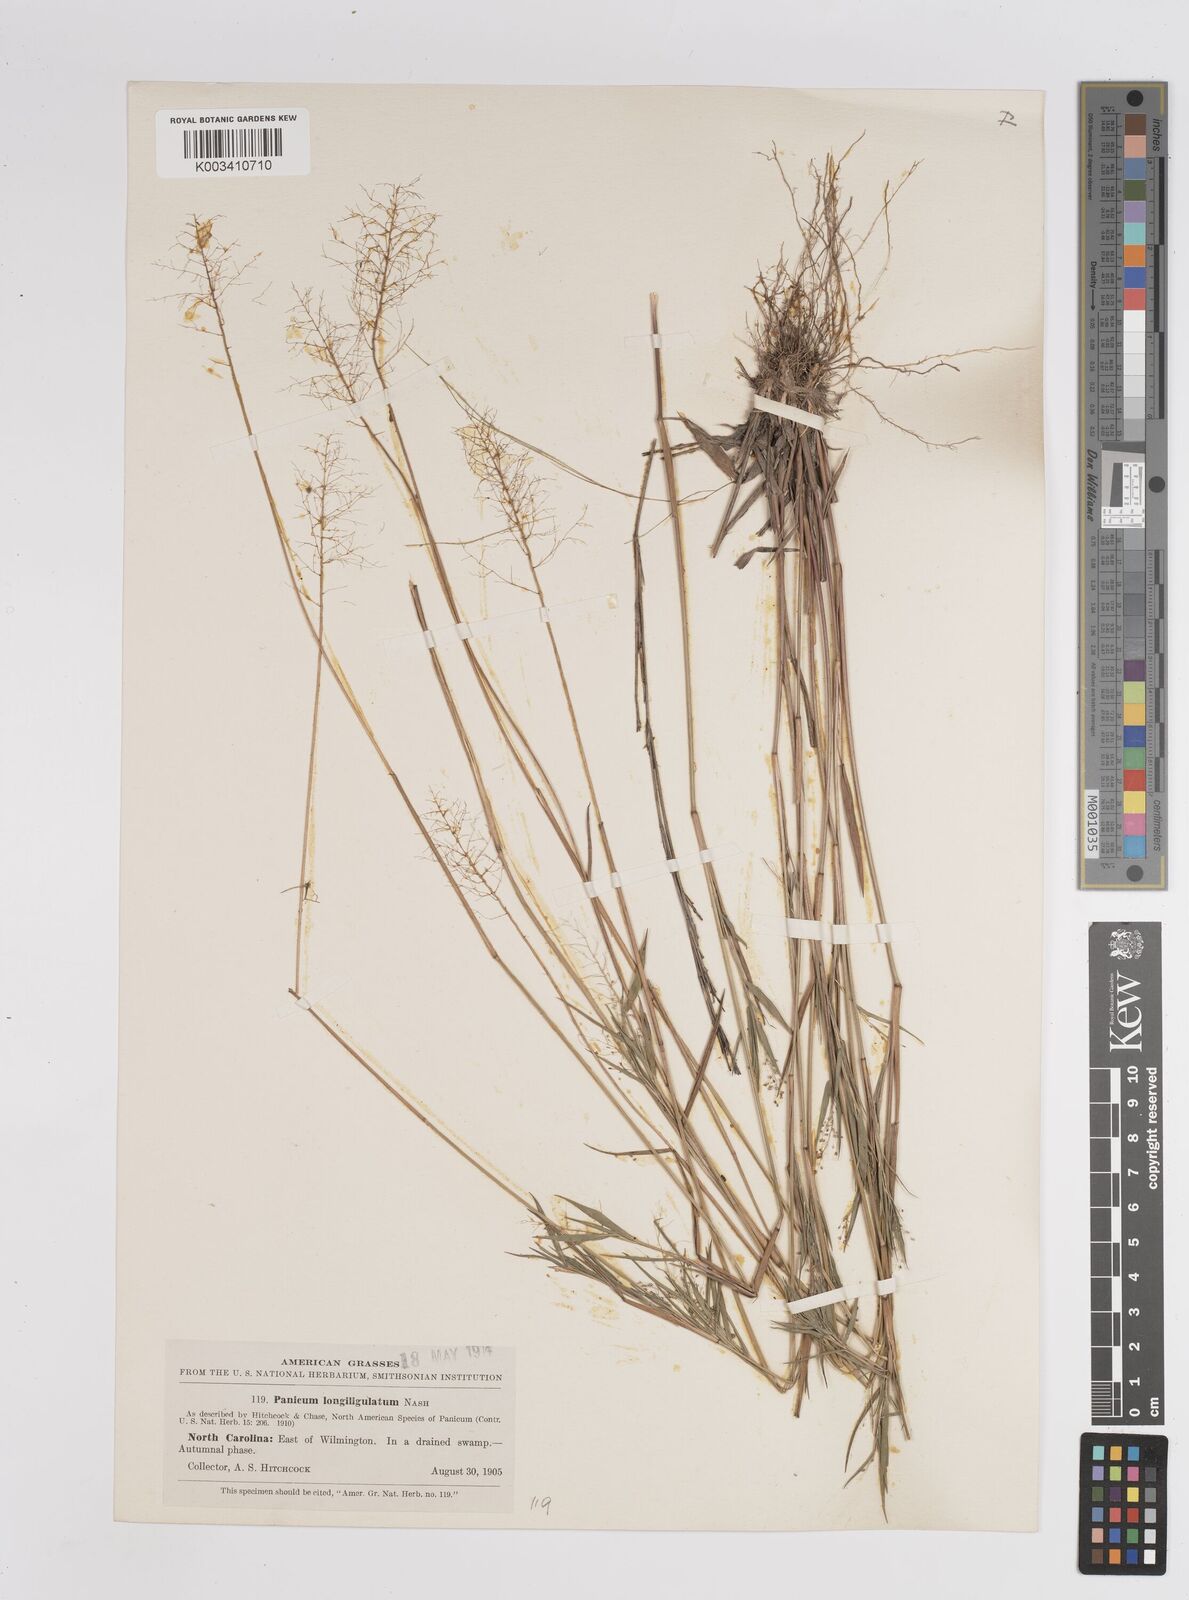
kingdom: Plantae
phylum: Tracheophyta
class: Liliopsida
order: Poales
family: Poaceae
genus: Dichanthelium
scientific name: Dichanthelium longiligulatum
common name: Long-ligule panicgrass
